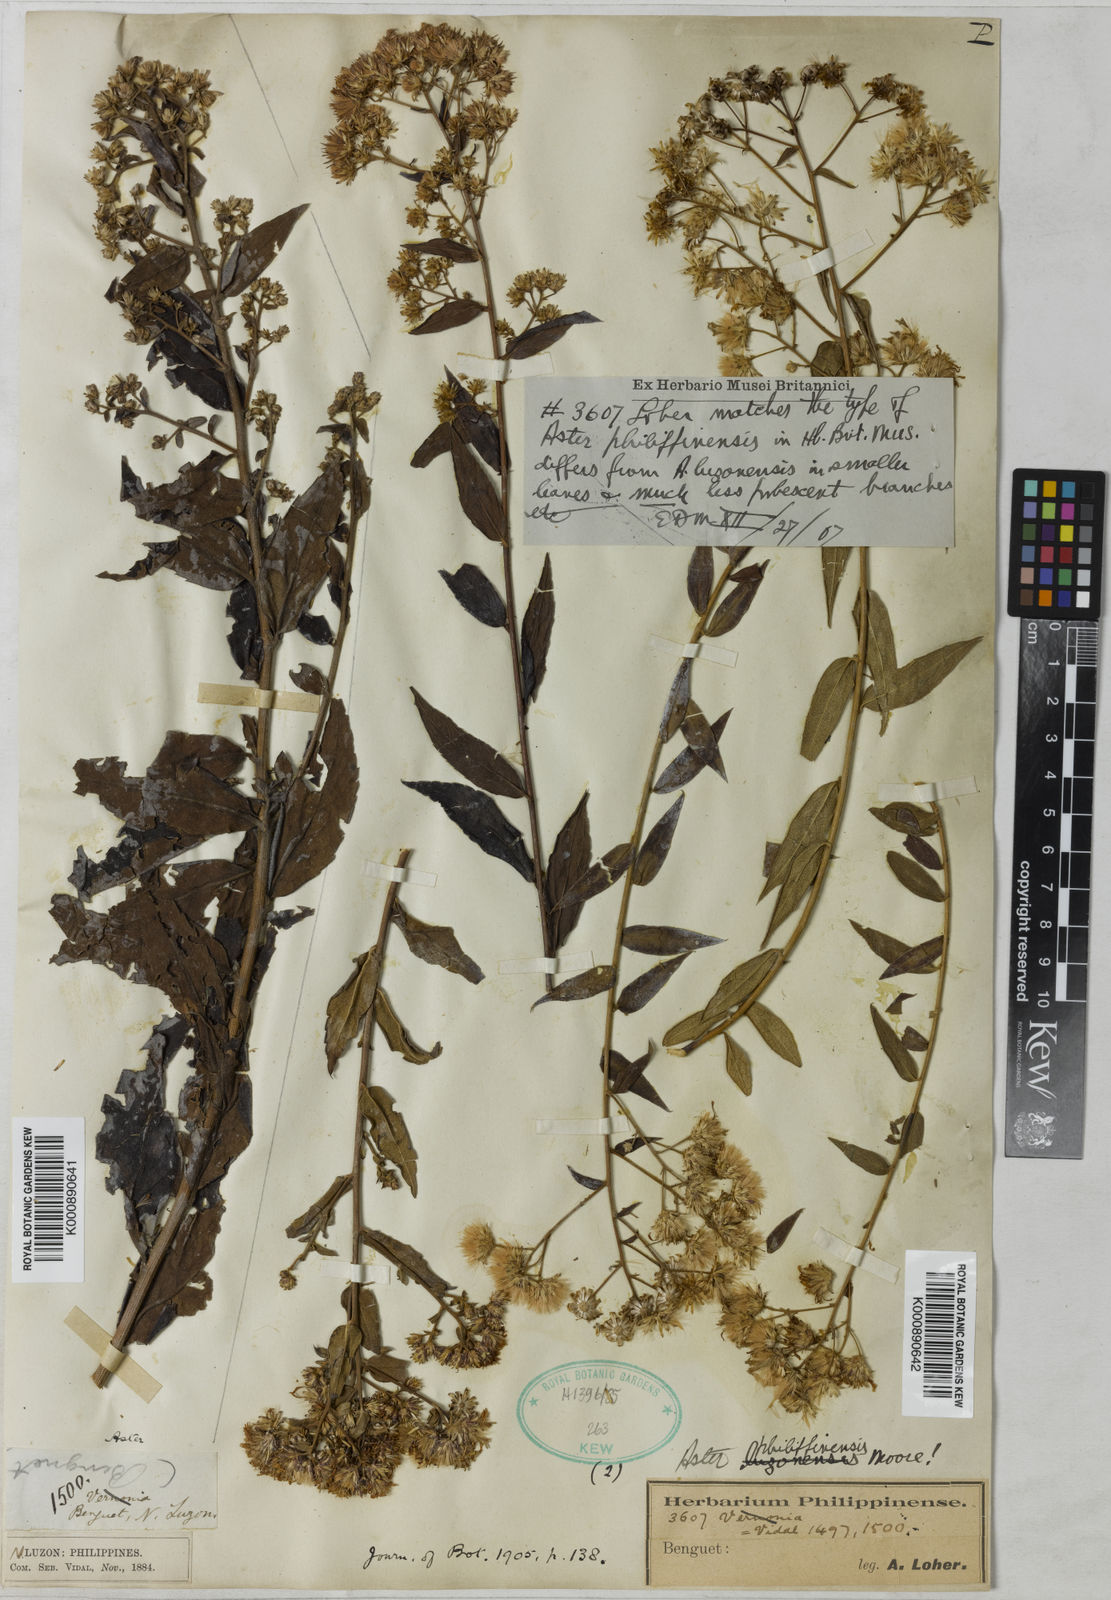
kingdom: Plantae
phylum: Tracheophyta
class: Magnoliopsida
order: Asterales
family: Asteraceae
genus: Aster
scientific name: Aster philippinensis
